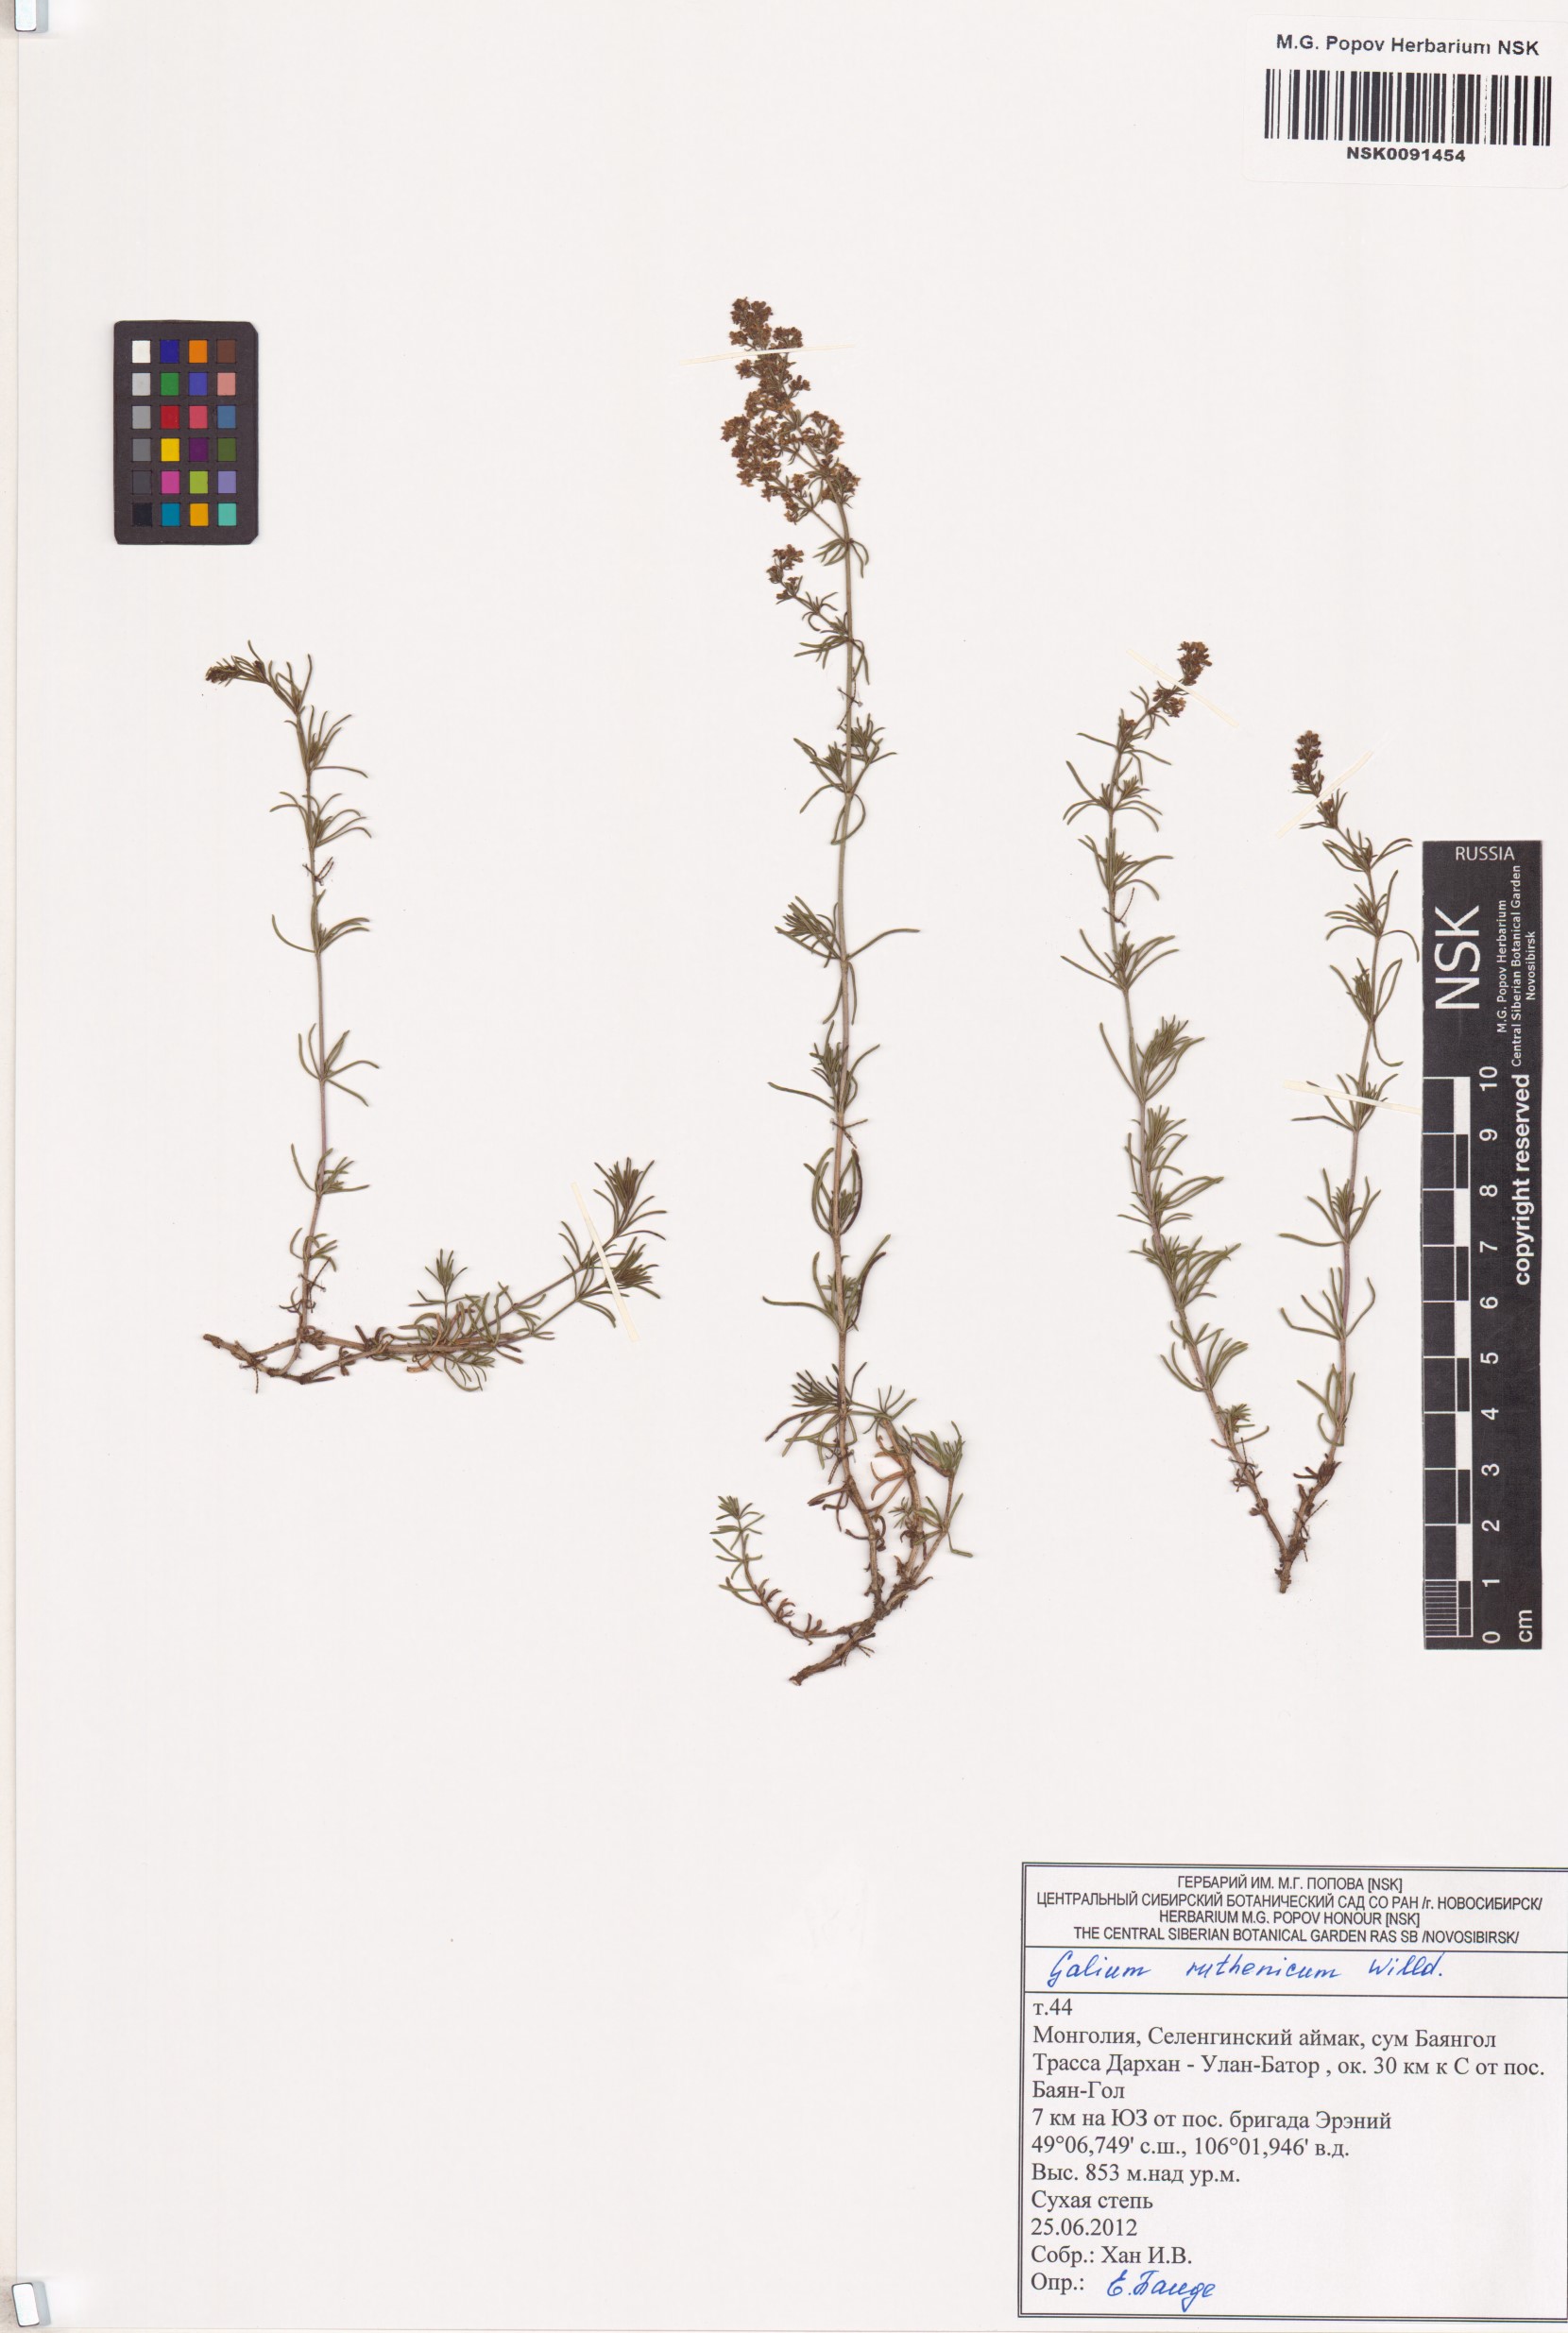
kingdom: Plantae
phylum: Tracheophyta
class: Magnoliopsida
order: Gentianales
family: Rubiaceae
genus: Galium
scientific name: Galium verum
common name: Lady's bedstraw
